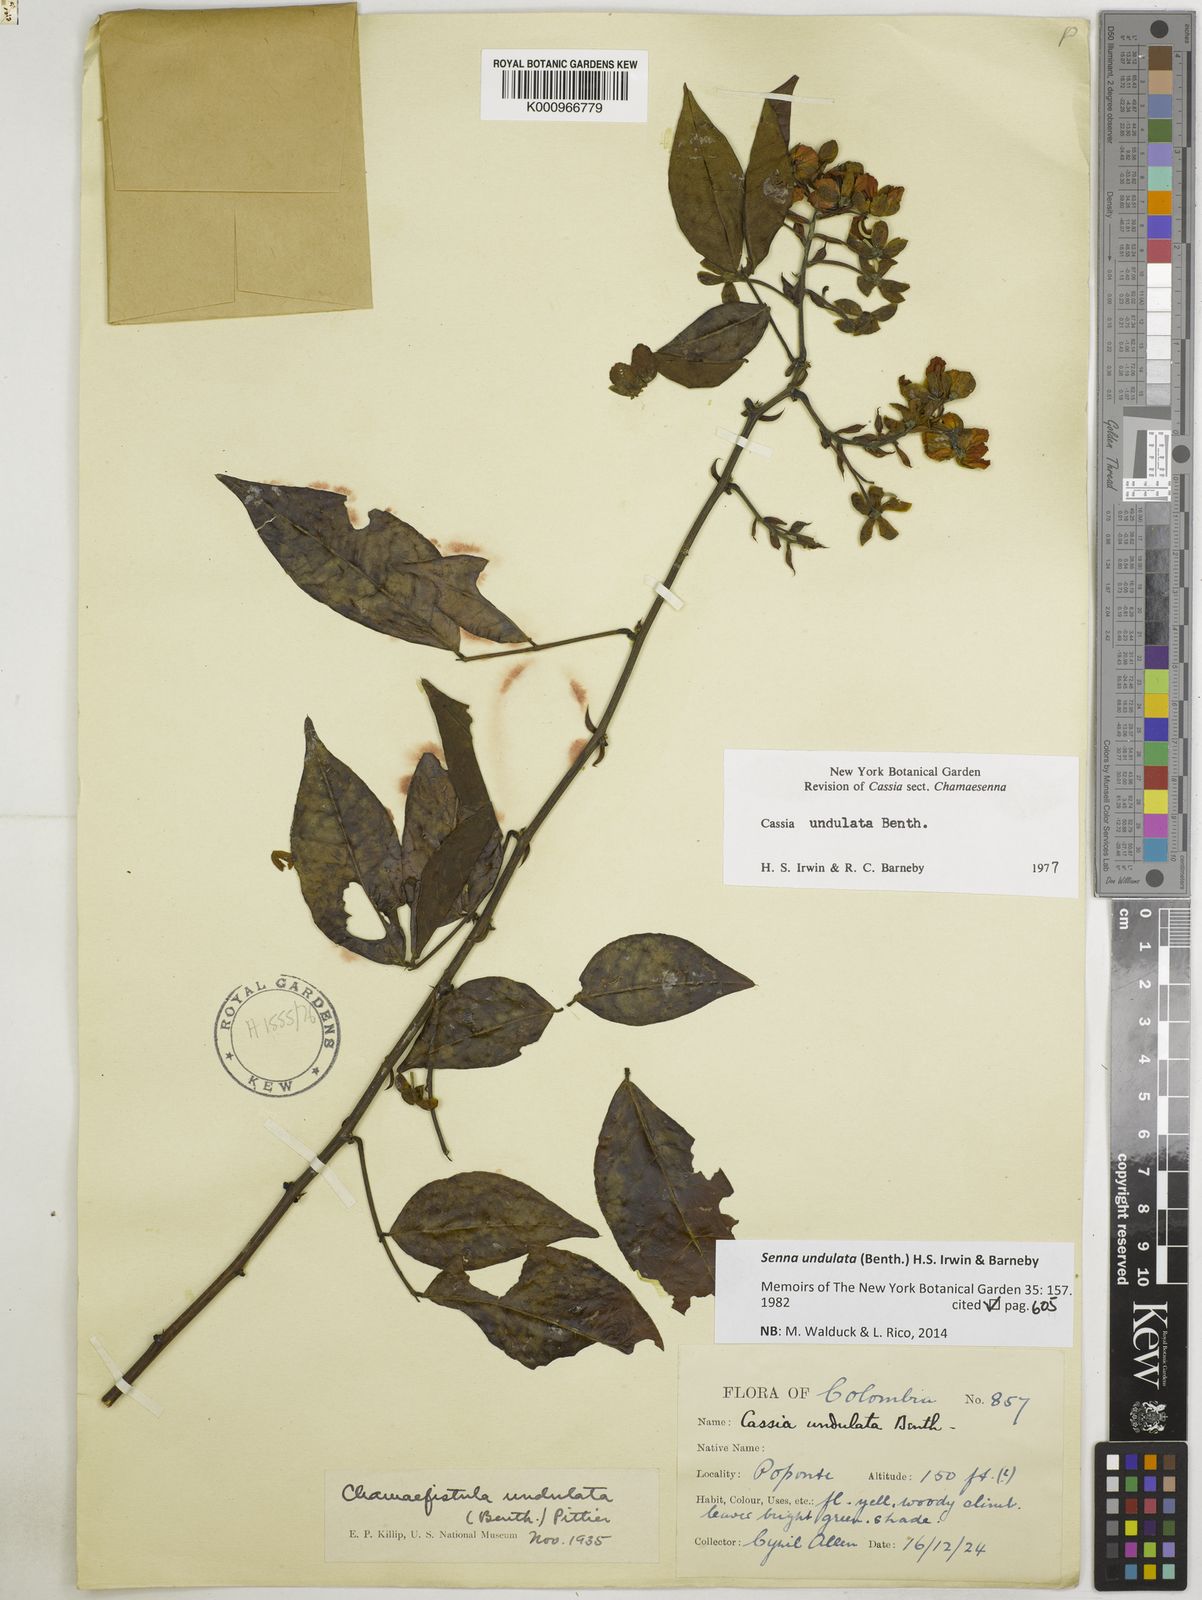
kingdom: Plantae
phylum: Tracheophyta
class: Magnoliopsida
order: Fabales
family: Fabaceae
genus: Senna
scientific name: Senna undulata
